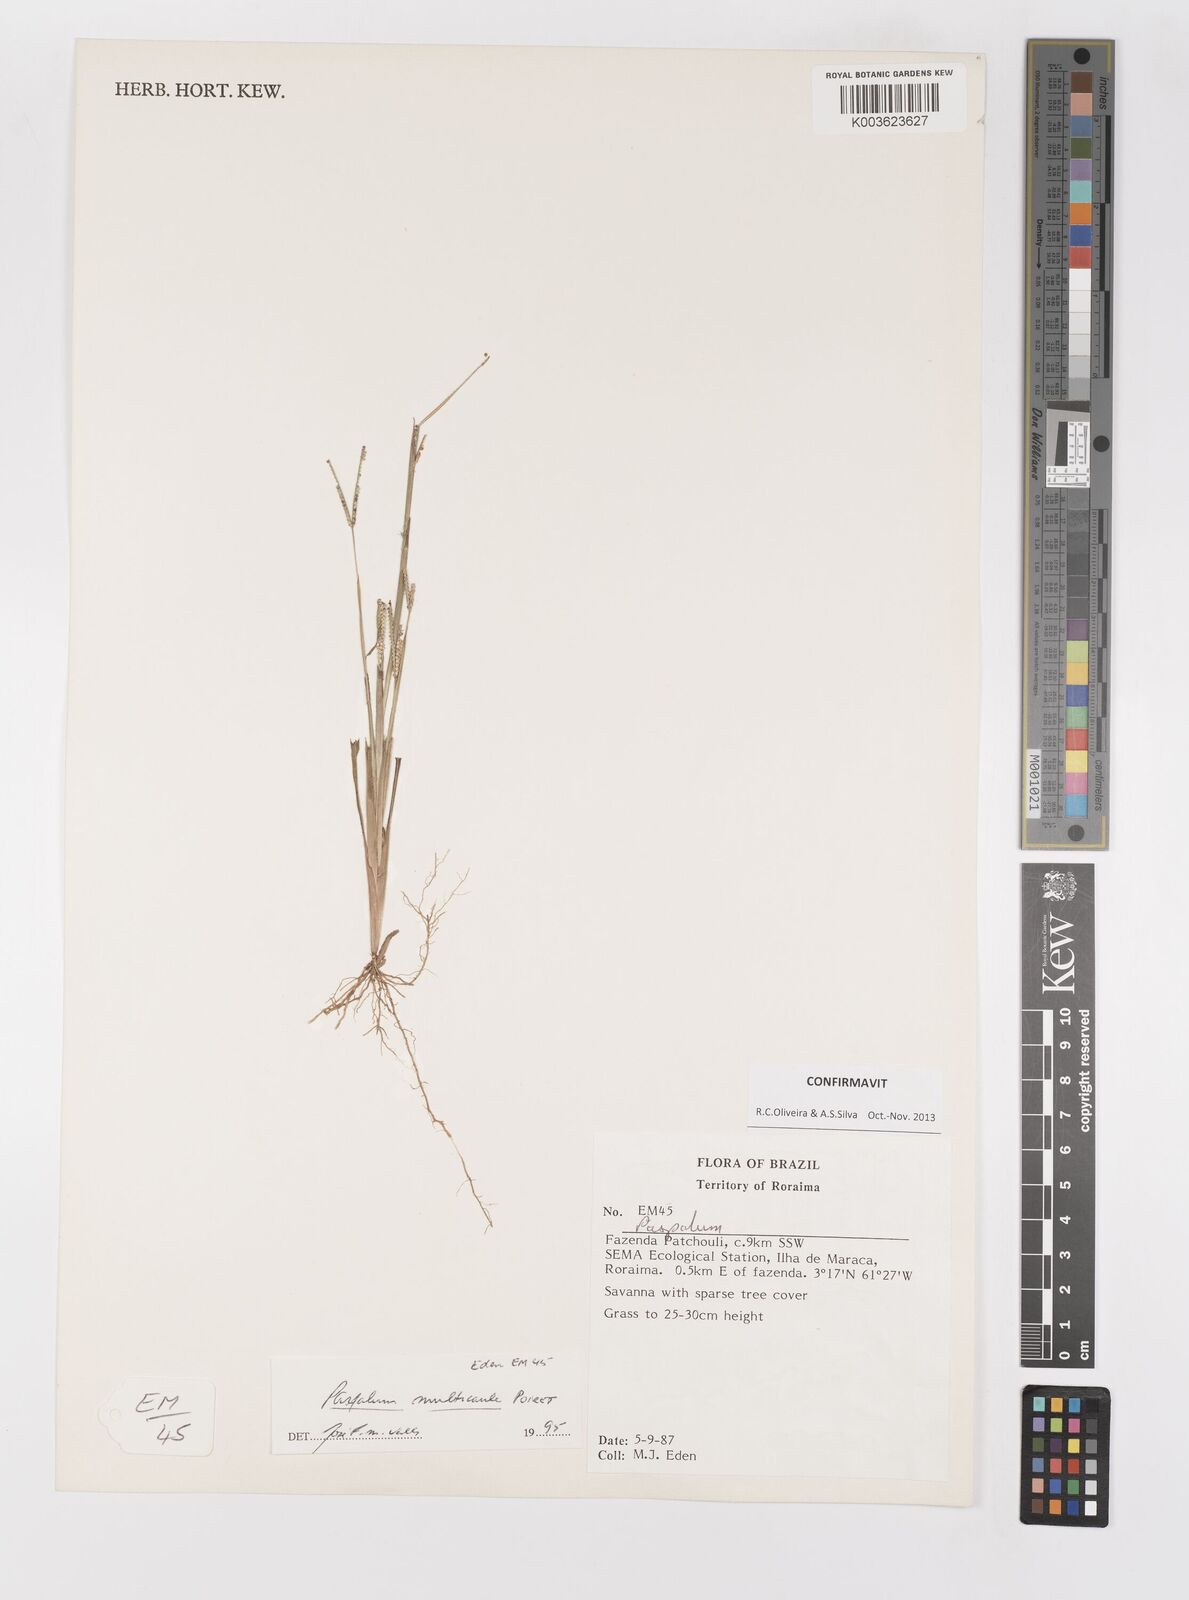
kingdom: Plantae
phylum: Tracheophyta
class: Liliopsida
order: Poales
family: Poaceae
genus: Paspalum
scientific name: Paspalum multicaule
